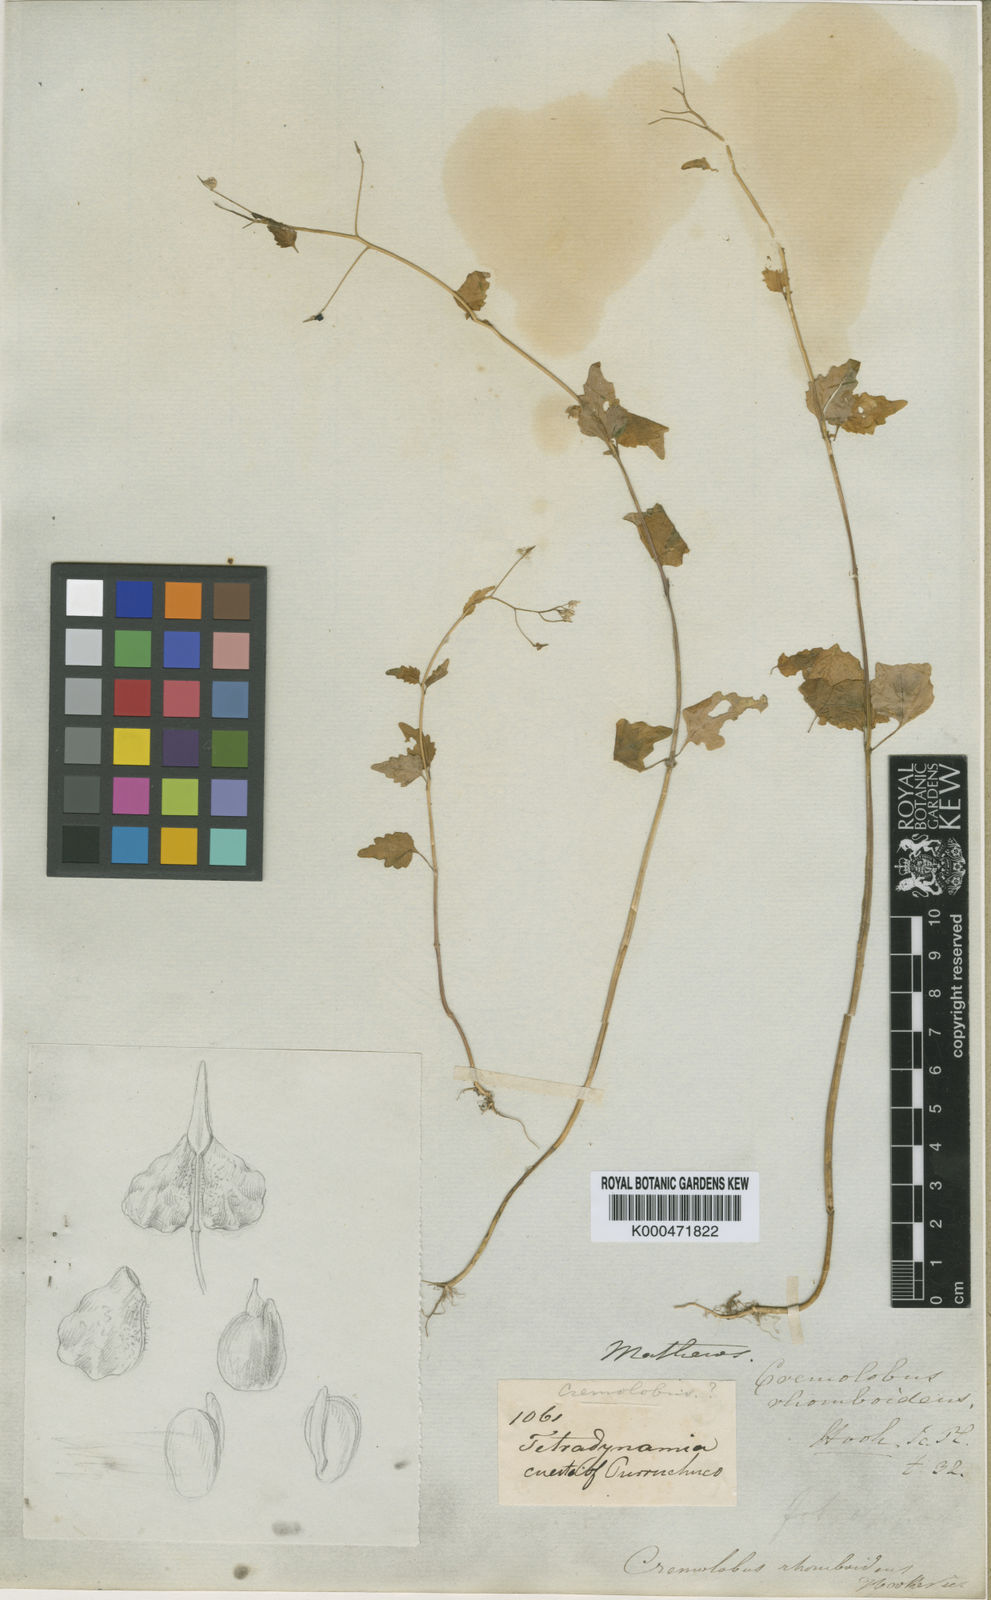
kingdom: Plantae
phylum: Tracheophyta
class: Magnoliopsida
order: Brassicales
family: Brassicaceae
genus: Cremolobus
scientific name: Cremolobus rhomboideus
